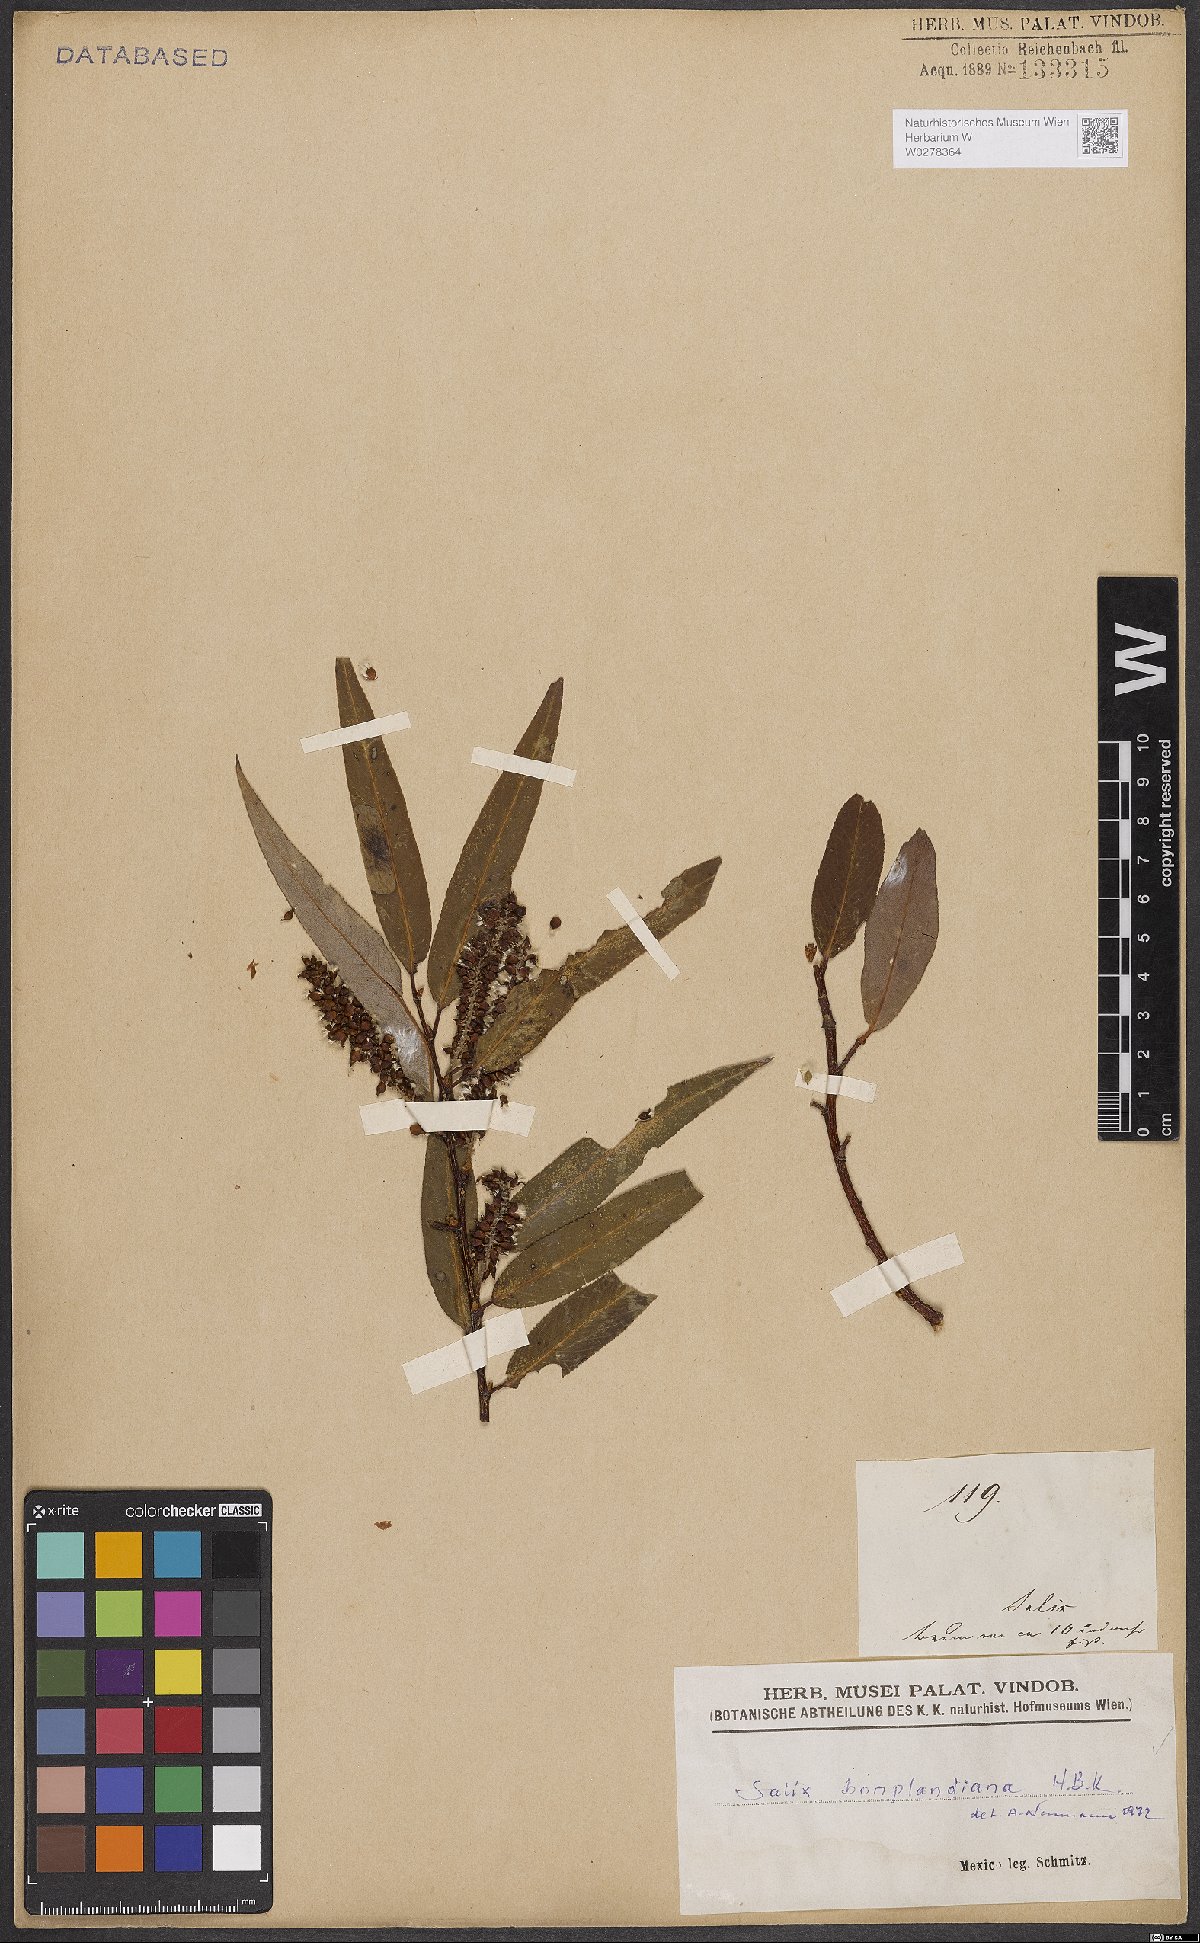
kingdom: Plantae
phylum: Tracheophyta
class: Magnoliopsida
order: Malpighiales
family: Salicaceae
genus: Salix
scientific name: Salix bonplandiana
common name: Bonpland’s willow
